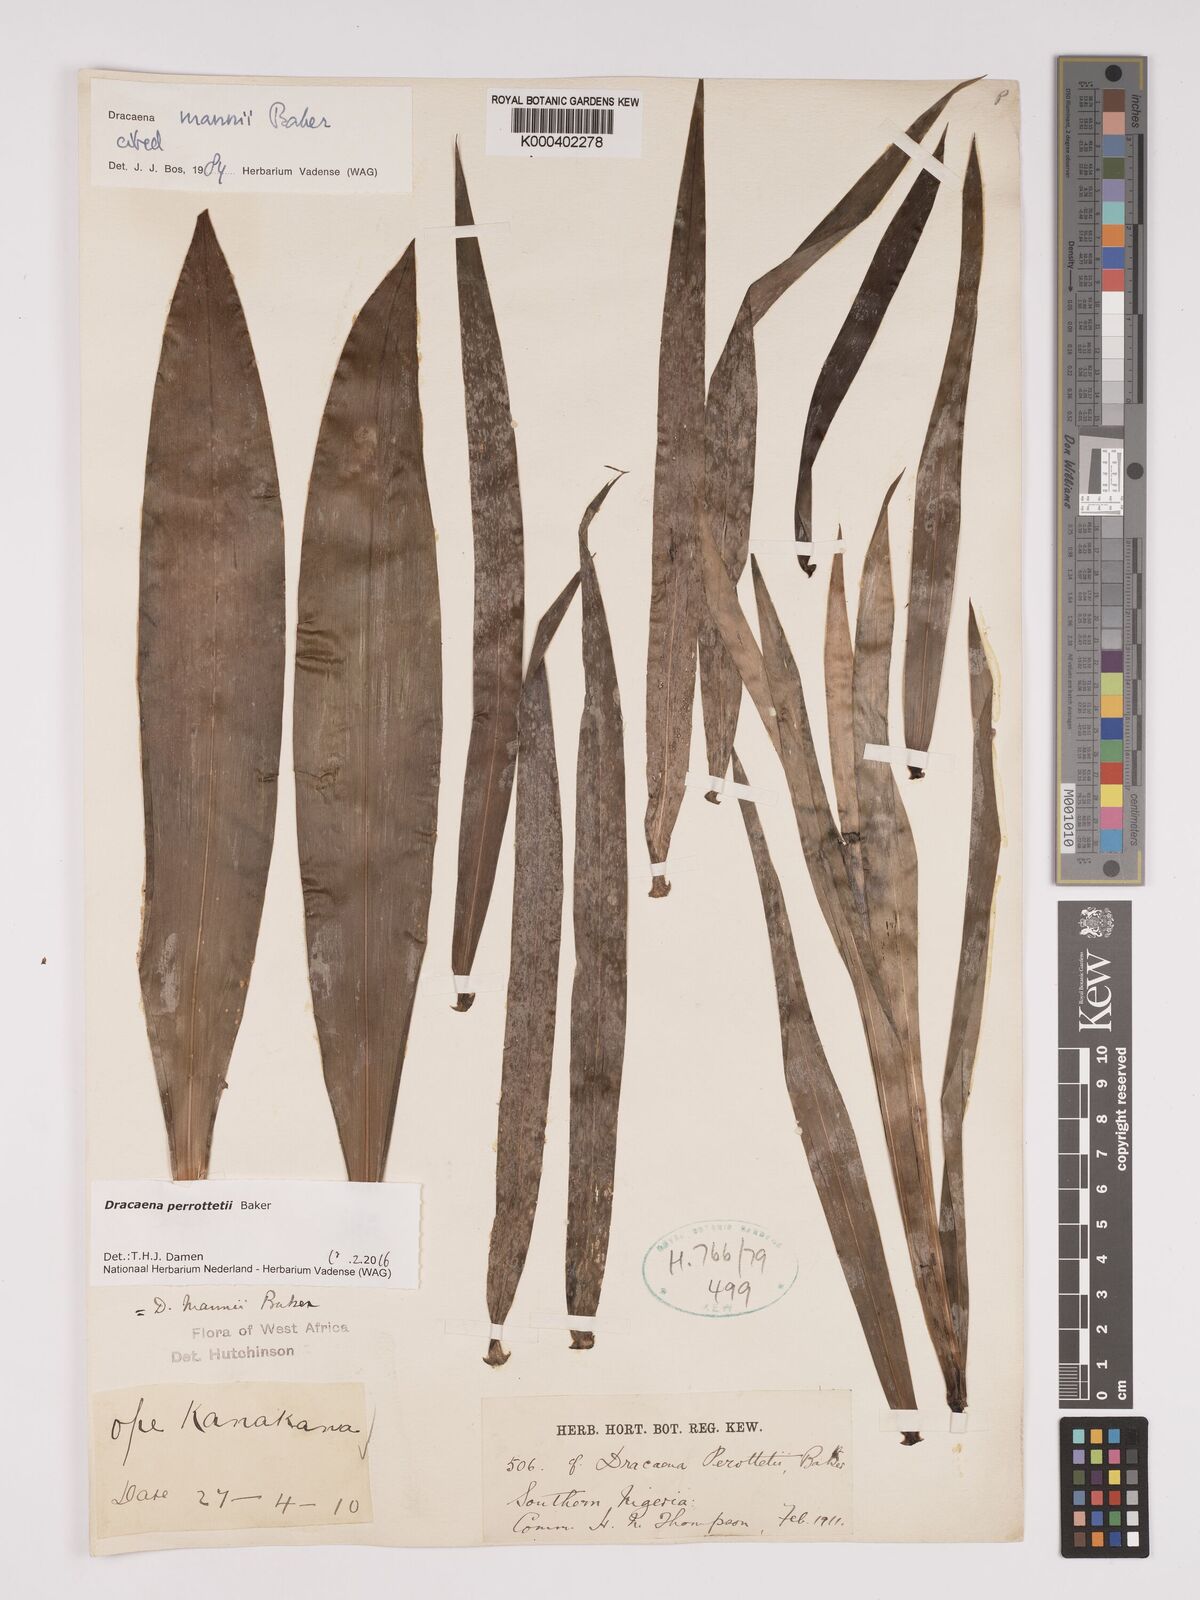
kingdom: Plantae
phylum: Tracheophyta
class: Liliopsida
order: Asparagales
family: Asparagaceae
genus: Dracaena
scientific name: Dracaena perrottetii
